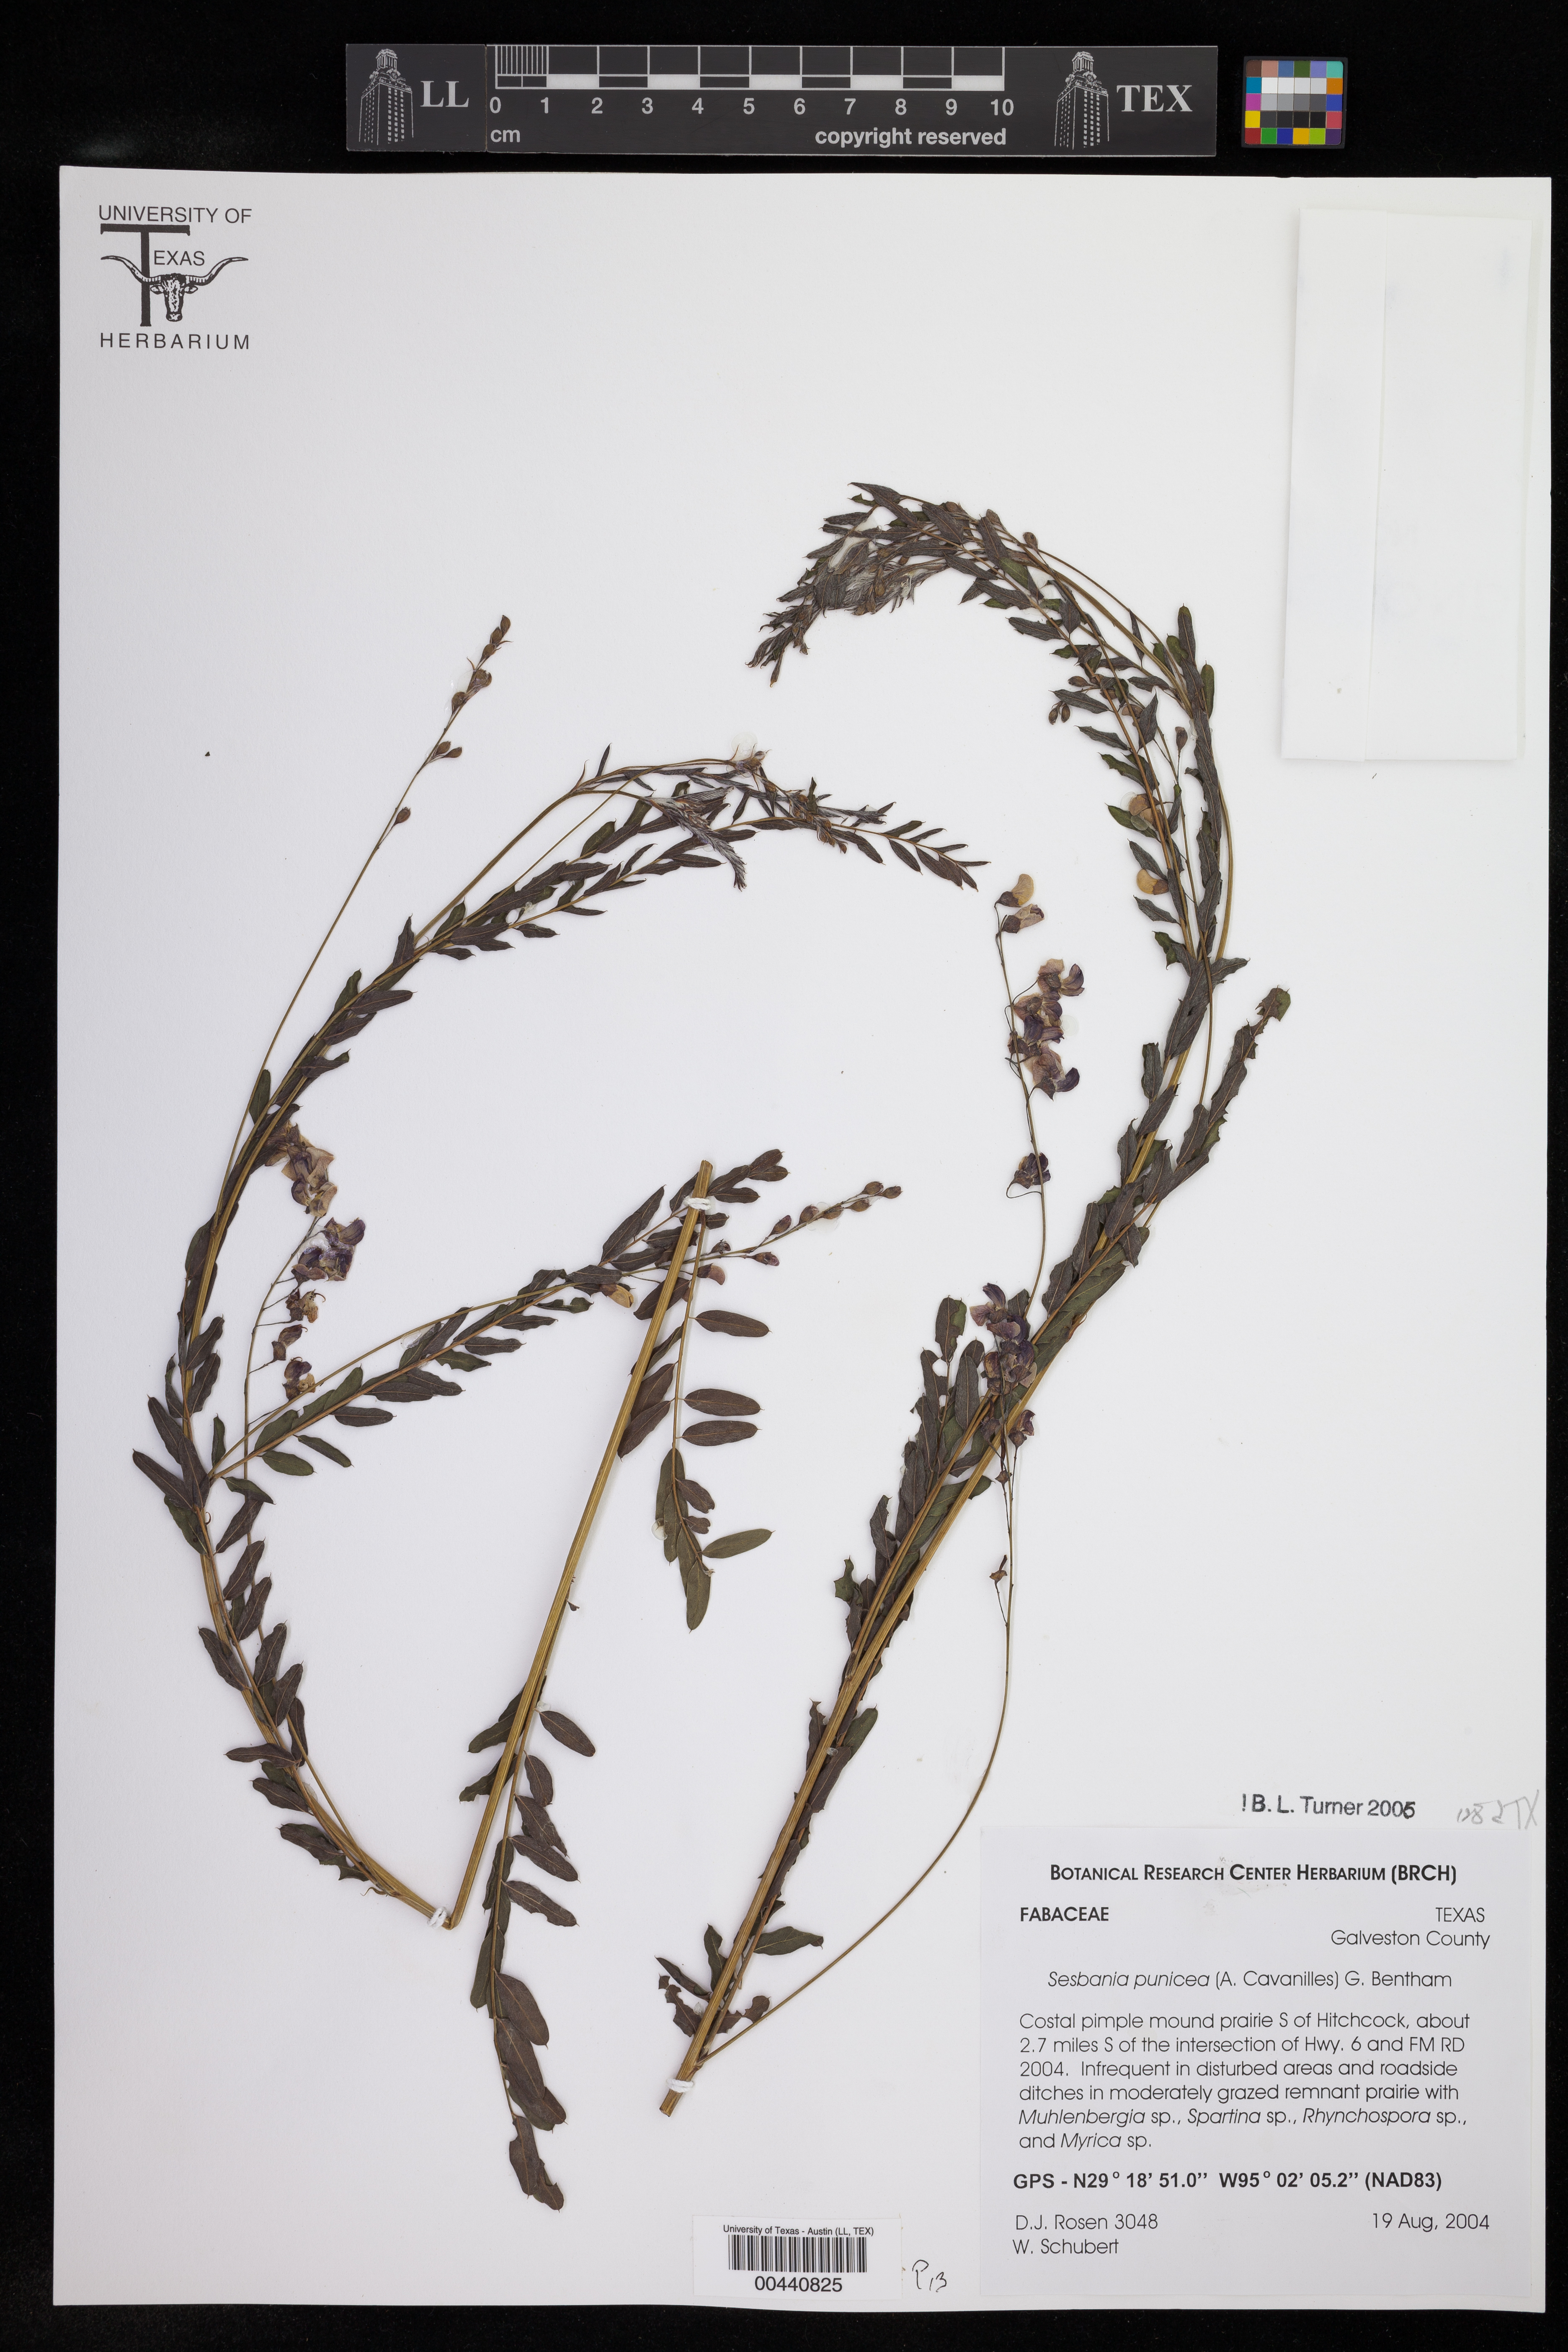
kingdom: Plantae
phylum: Tracheophyta
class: Magnoliopsida
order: Fabales
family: Fabaceae
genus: Sesbania
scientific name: Sesbania punicea
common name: Rattlebox
